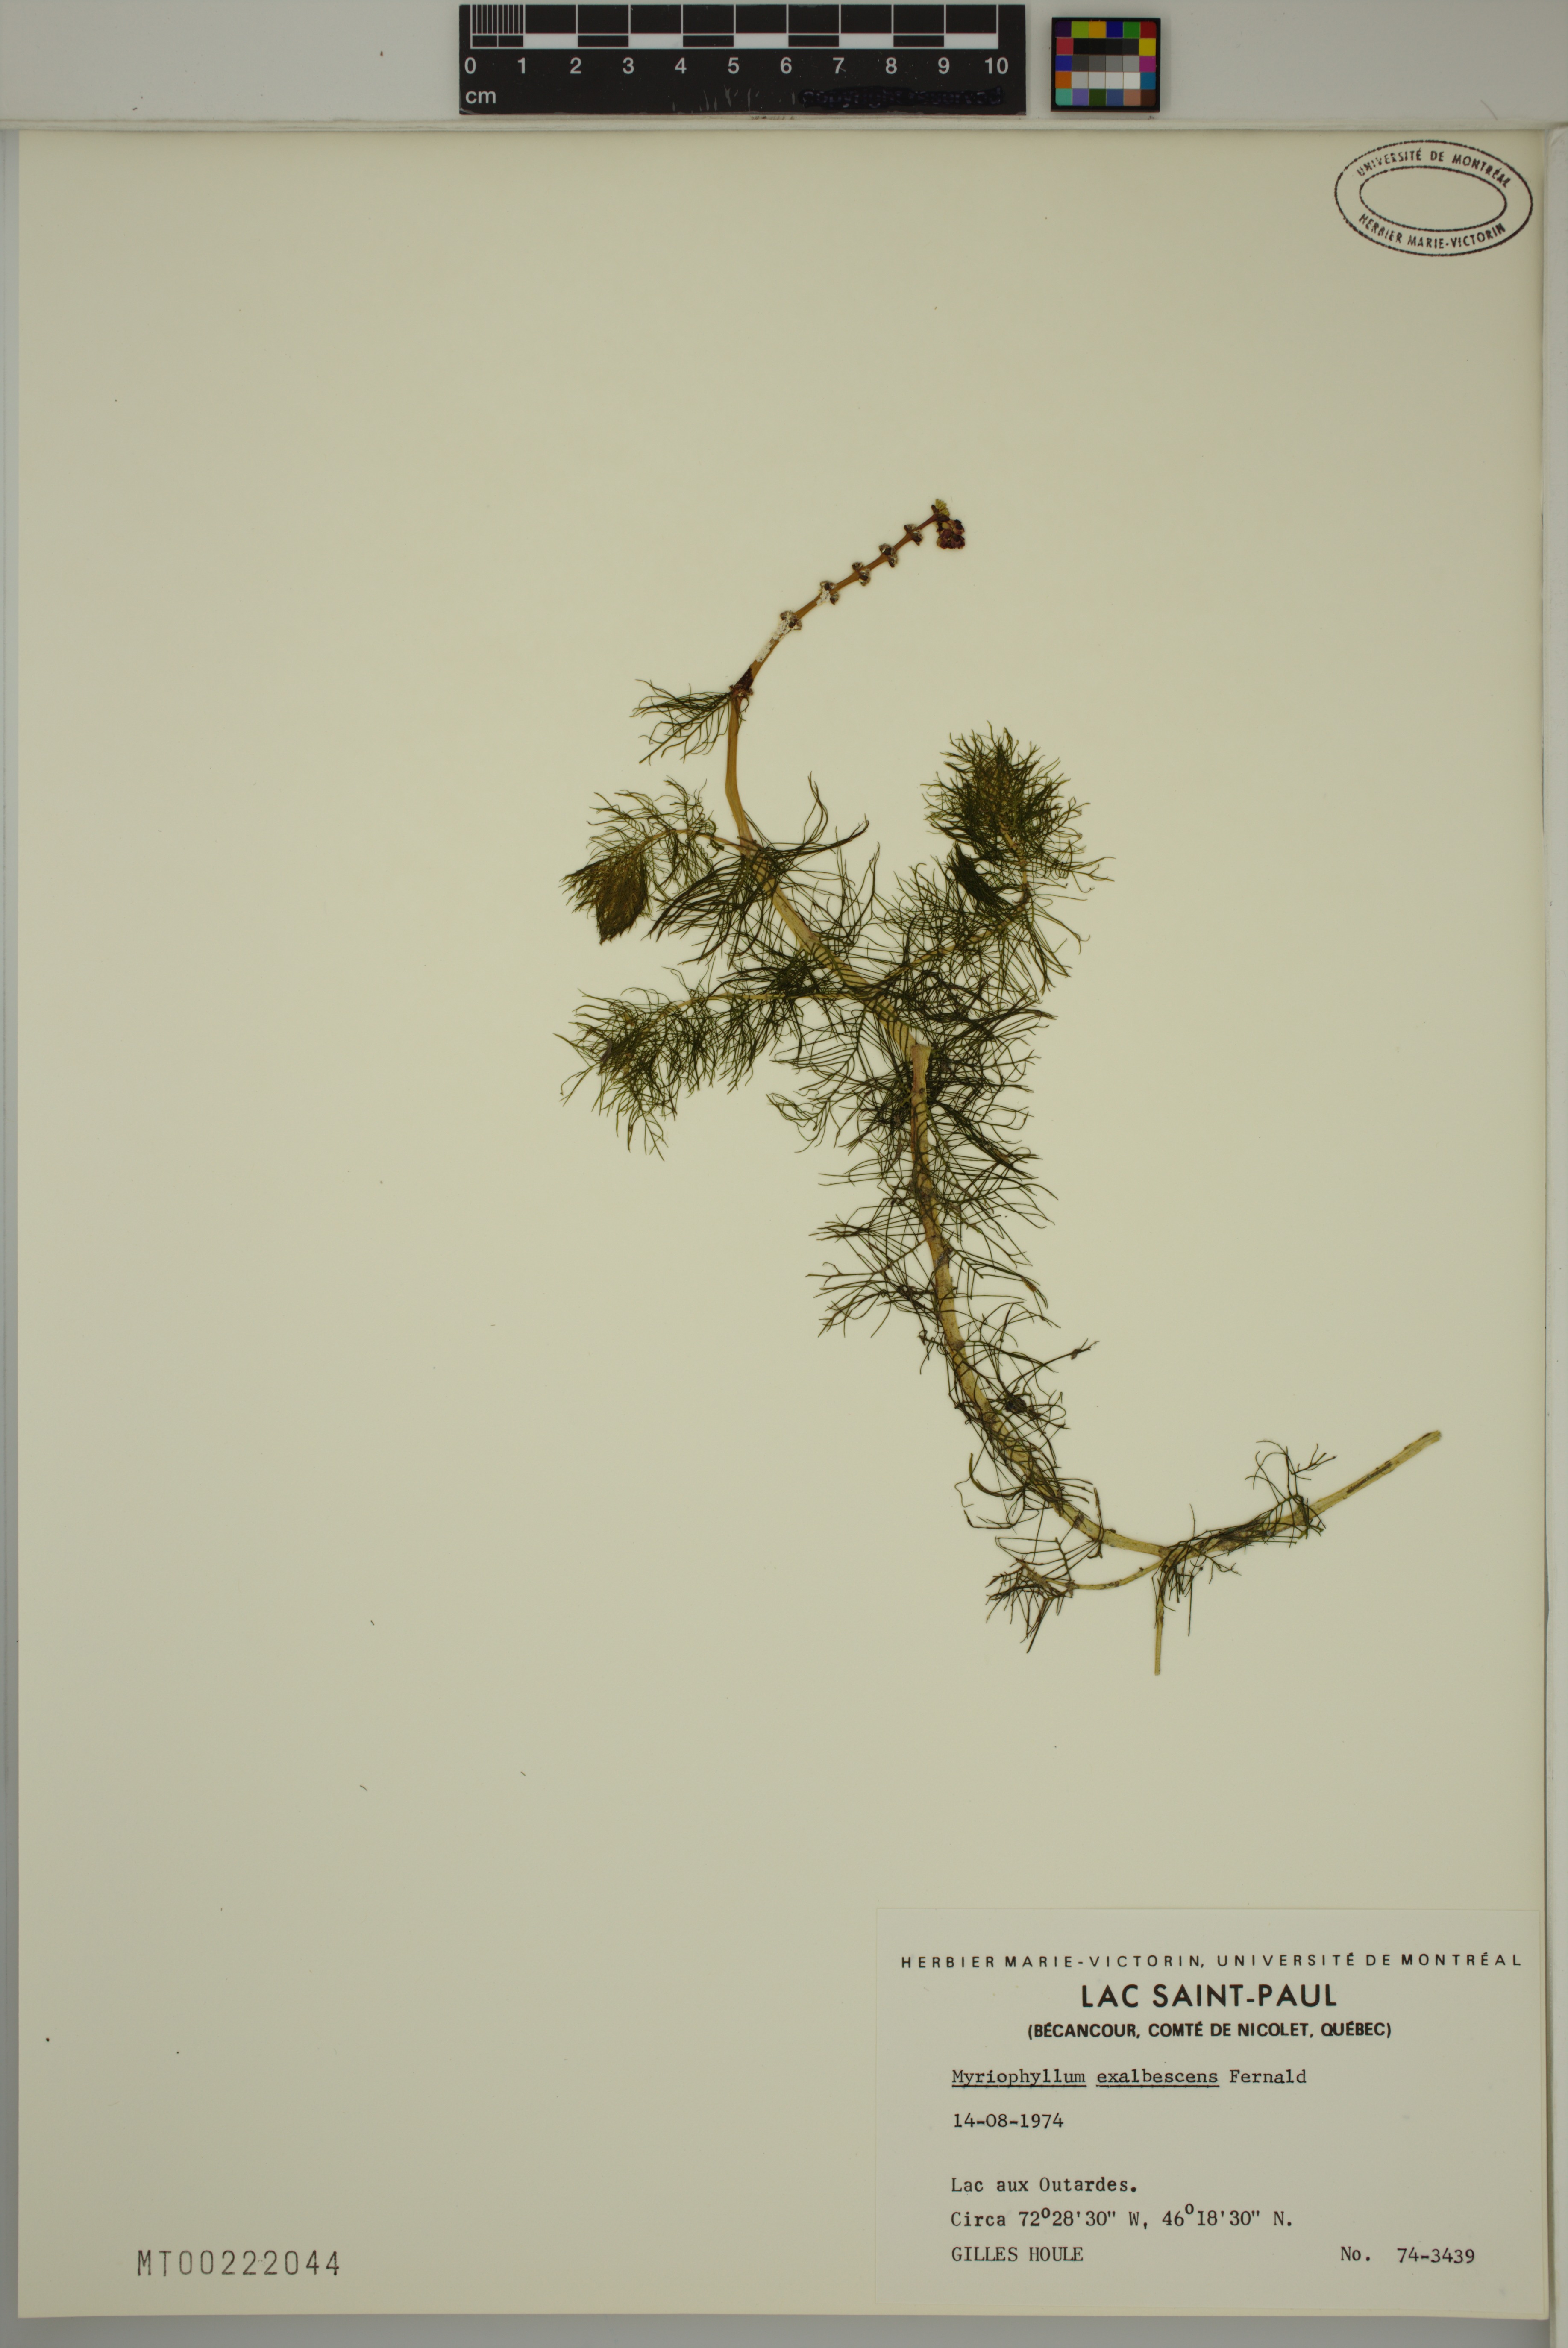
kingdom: Plantae
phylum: Tracheophyta
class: Magnoliopsida
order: Saxifragales
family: Haloragaceae
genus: Myriophyllum
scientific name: Myriophyllum sibiricum
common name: Siberian water-milfoil
